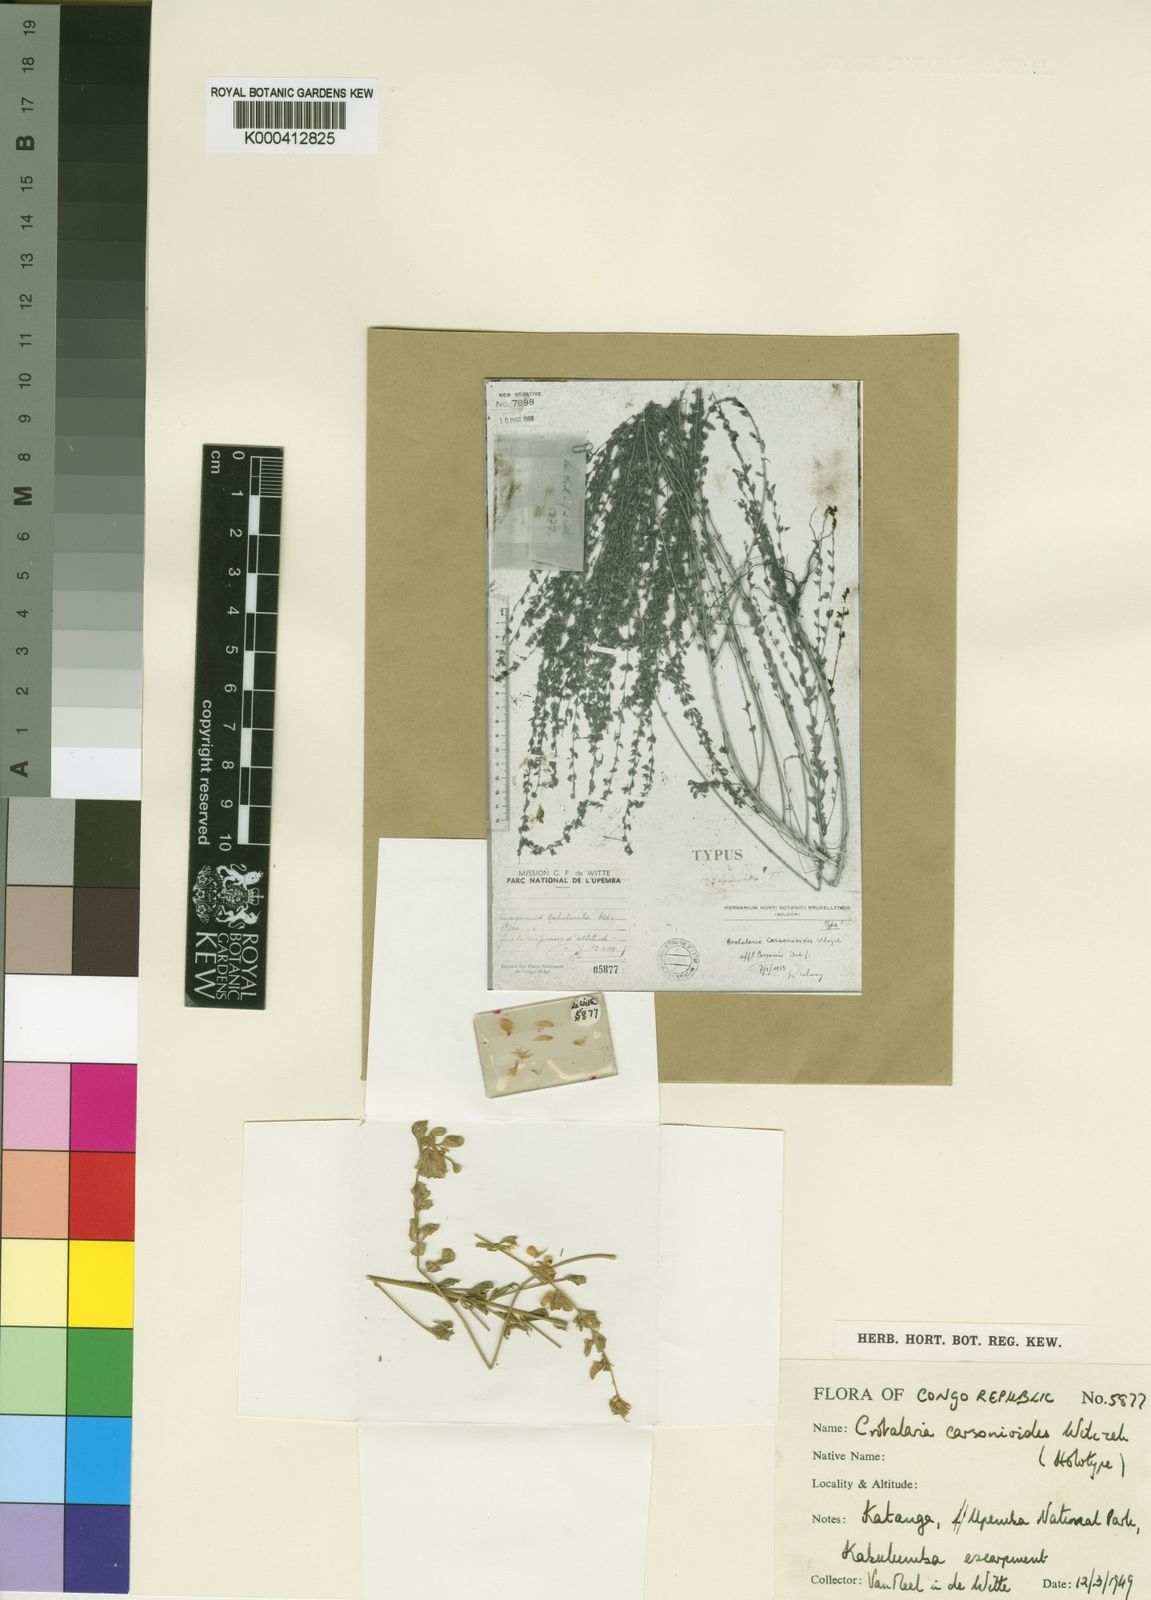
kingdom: Plantae
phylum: Tracheophyta
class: Magnoliopsida
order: Fabales
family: Fabaceae
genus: Crotalaria
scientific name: Crotalaria carsonioides
